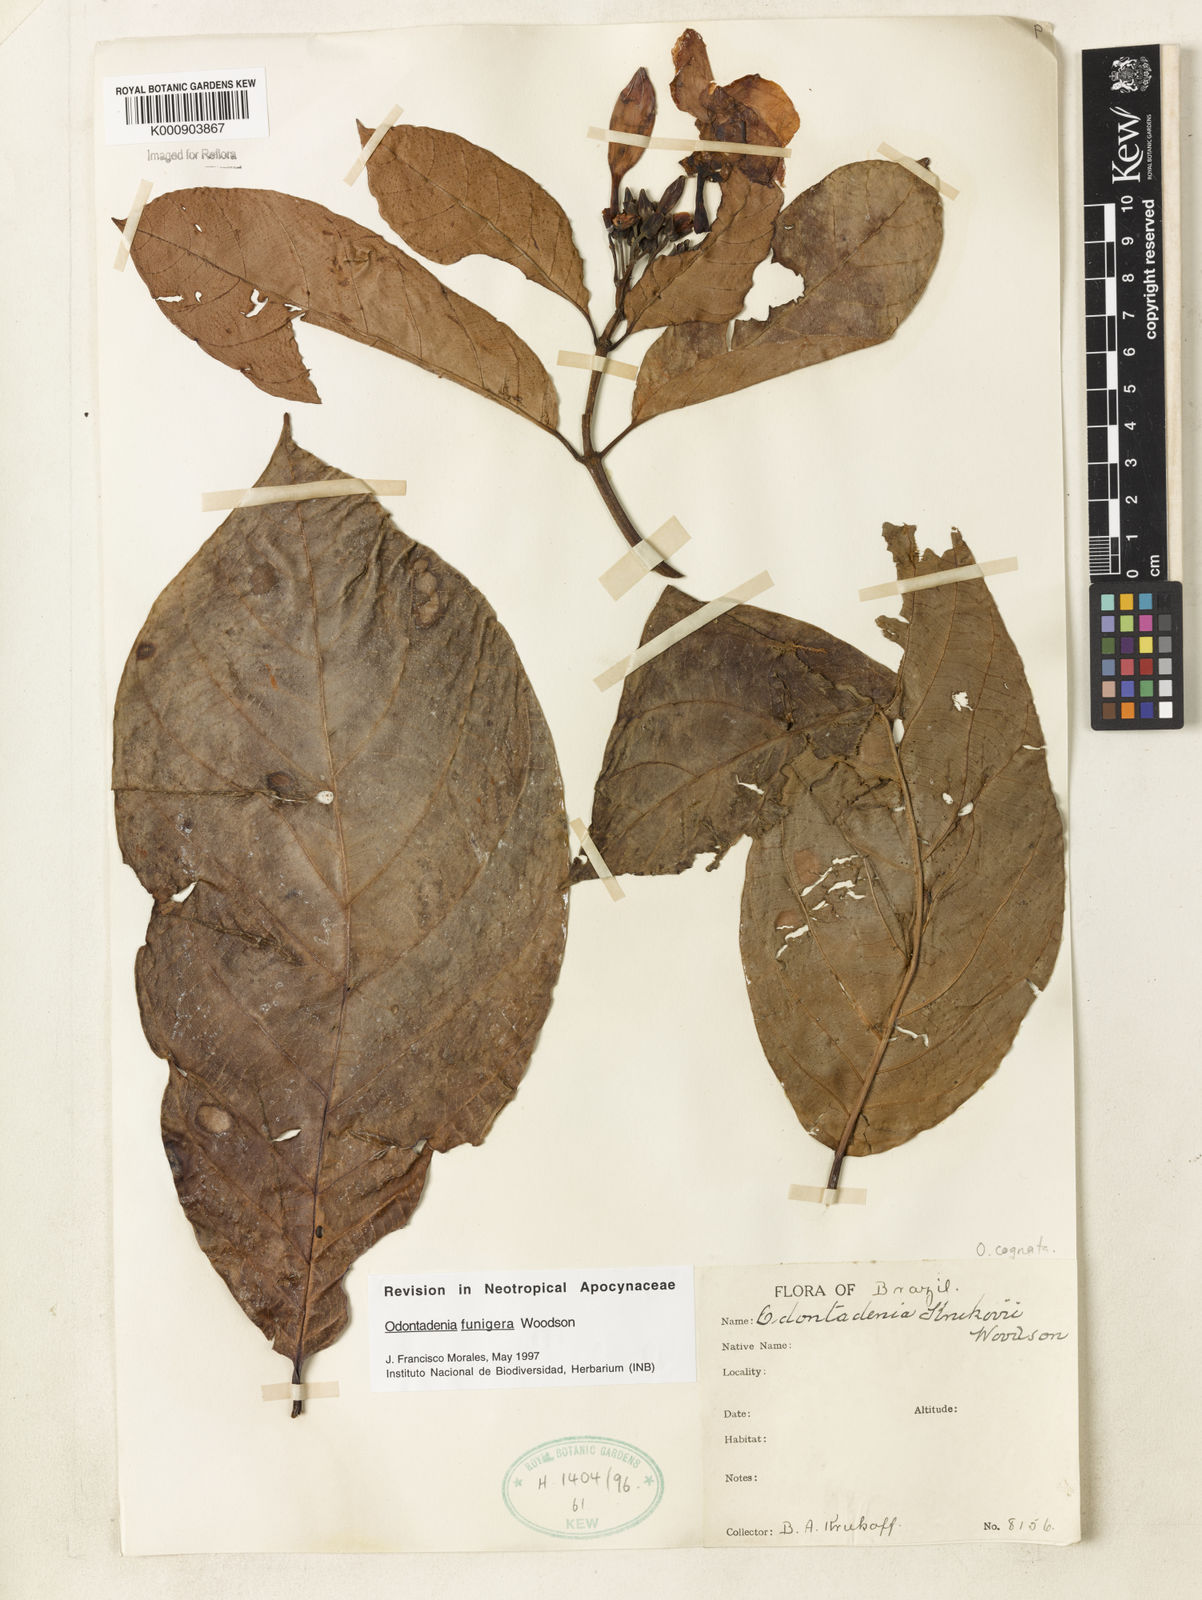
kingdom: Plantae
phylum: Tracheophyta
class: Magnoliopsida
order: Gentianales
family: Apocynaceae
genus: Odontadenia
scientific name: Odontadenia funigera
